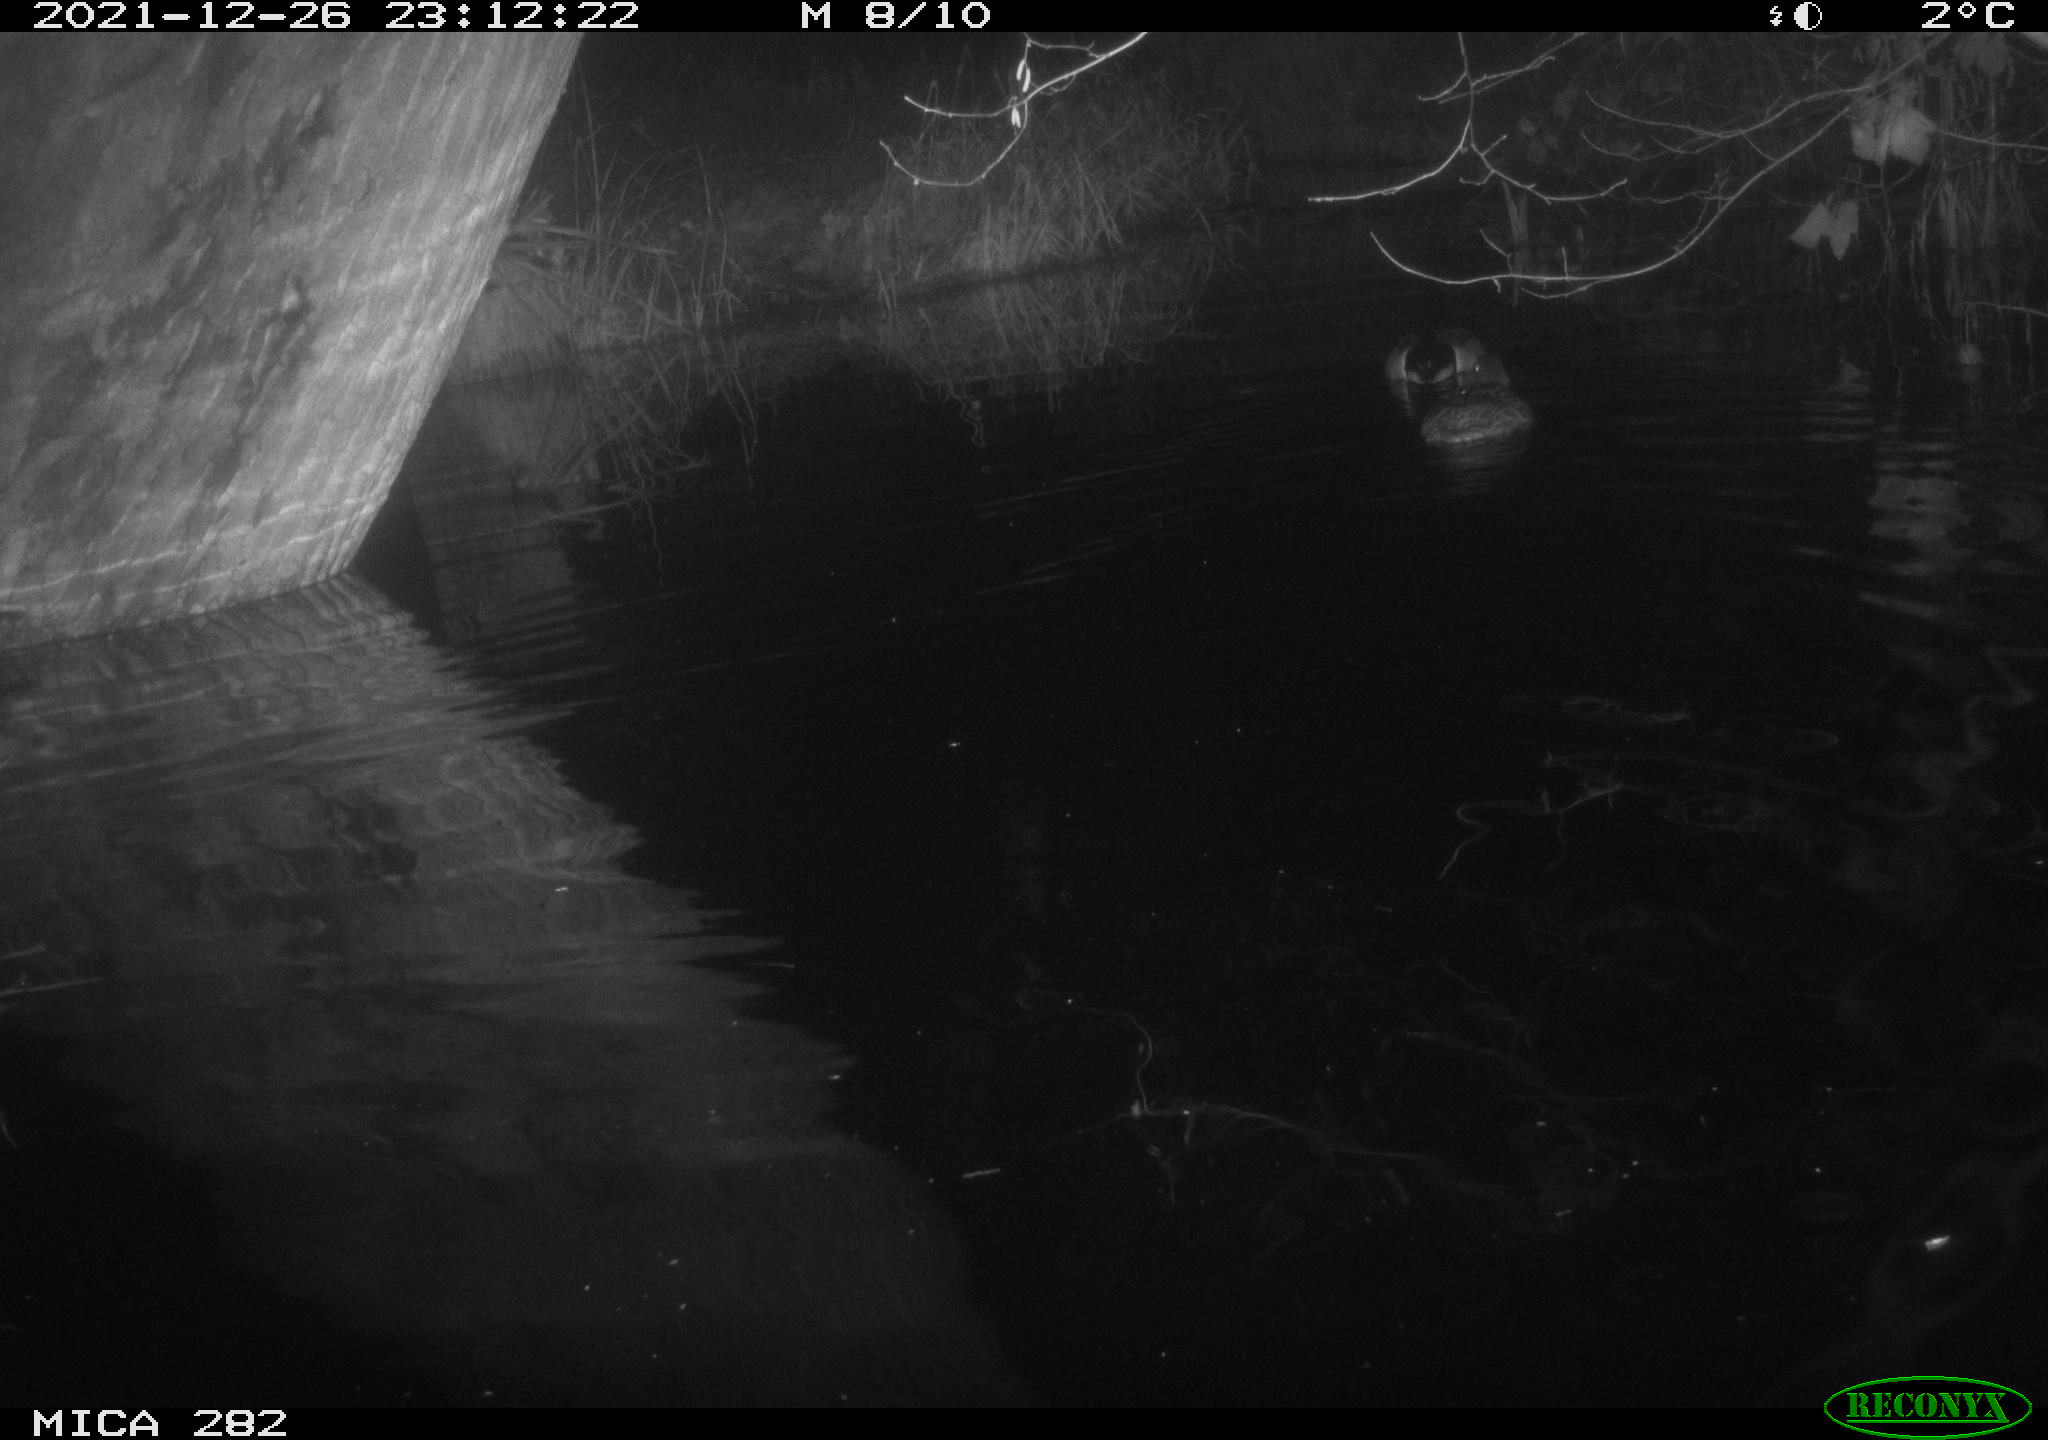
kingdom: Animalia
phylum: Chordata
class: Aves
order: Anseriformes
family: Anatidae
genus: Anas
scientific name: Anas platyrhynchos
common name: Mallard
